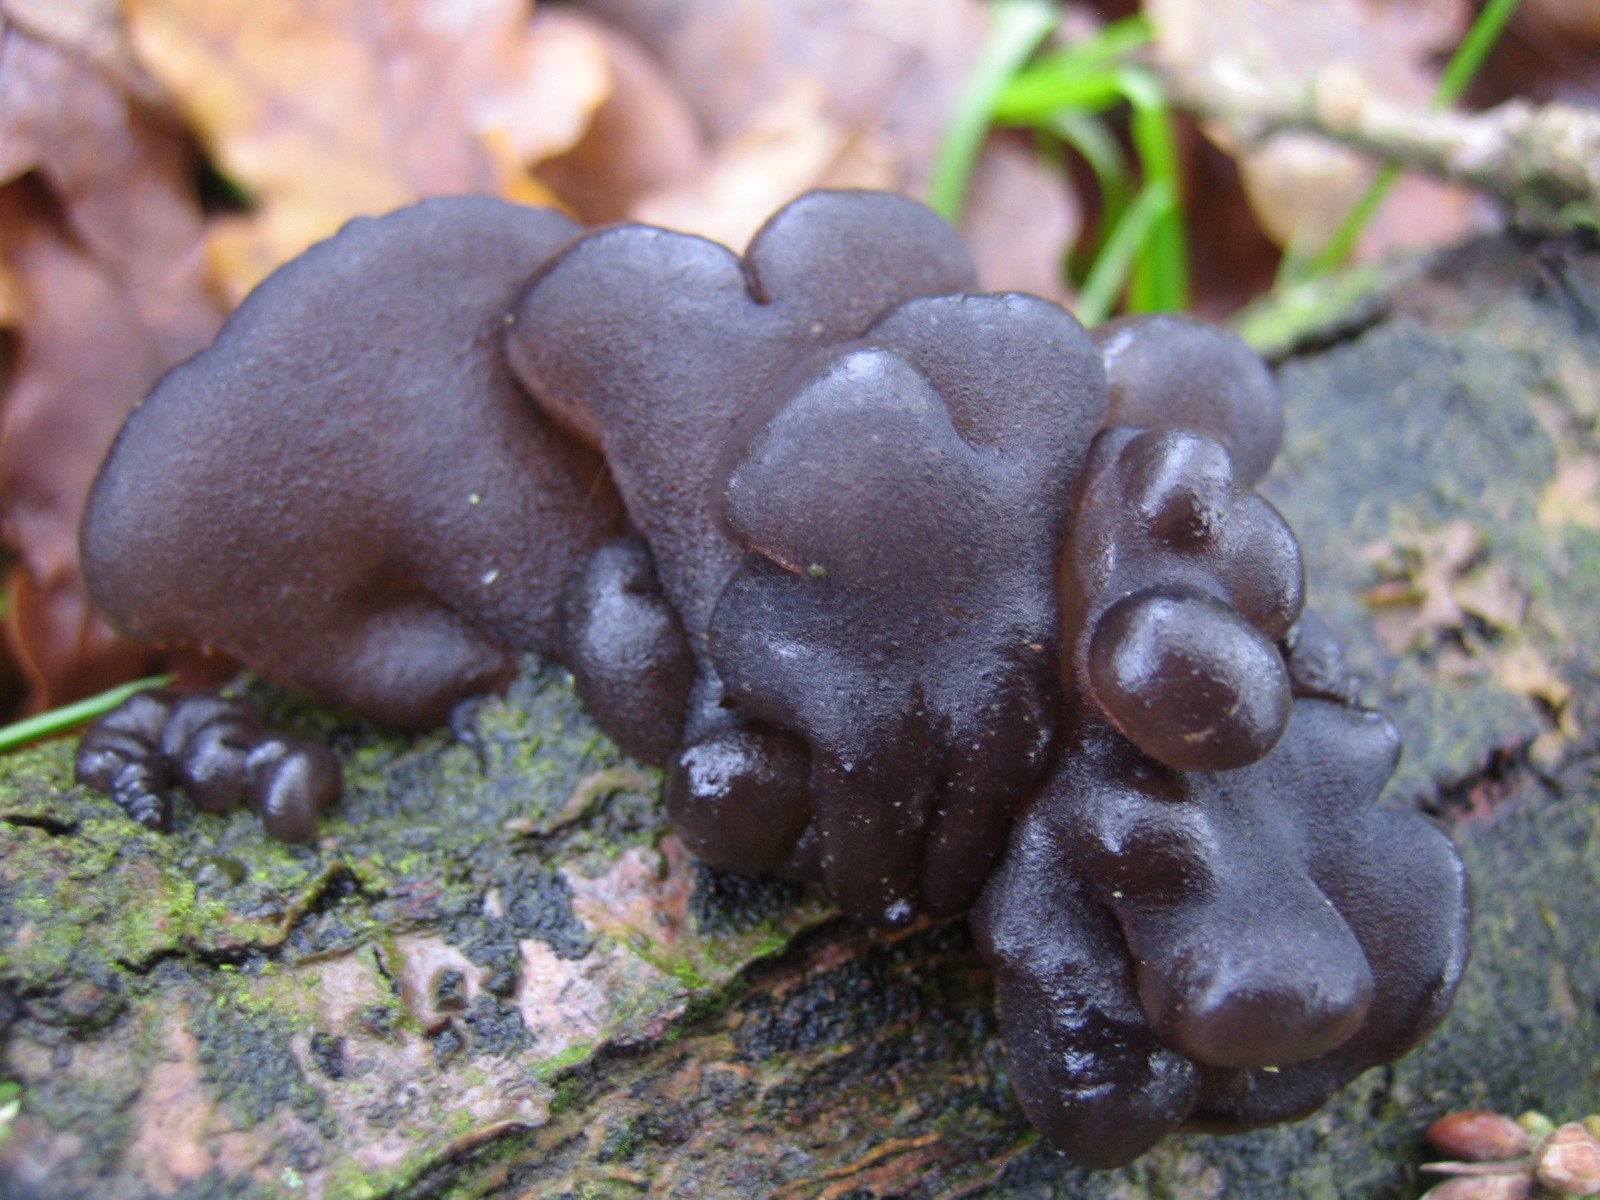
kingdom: Fungi
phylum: Basidiomycota
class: Agaricomycetes
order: Auriculariales
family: Auriculariaceae
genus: Exidia
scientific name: Exidia glandulosa
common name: ege-bævretop
